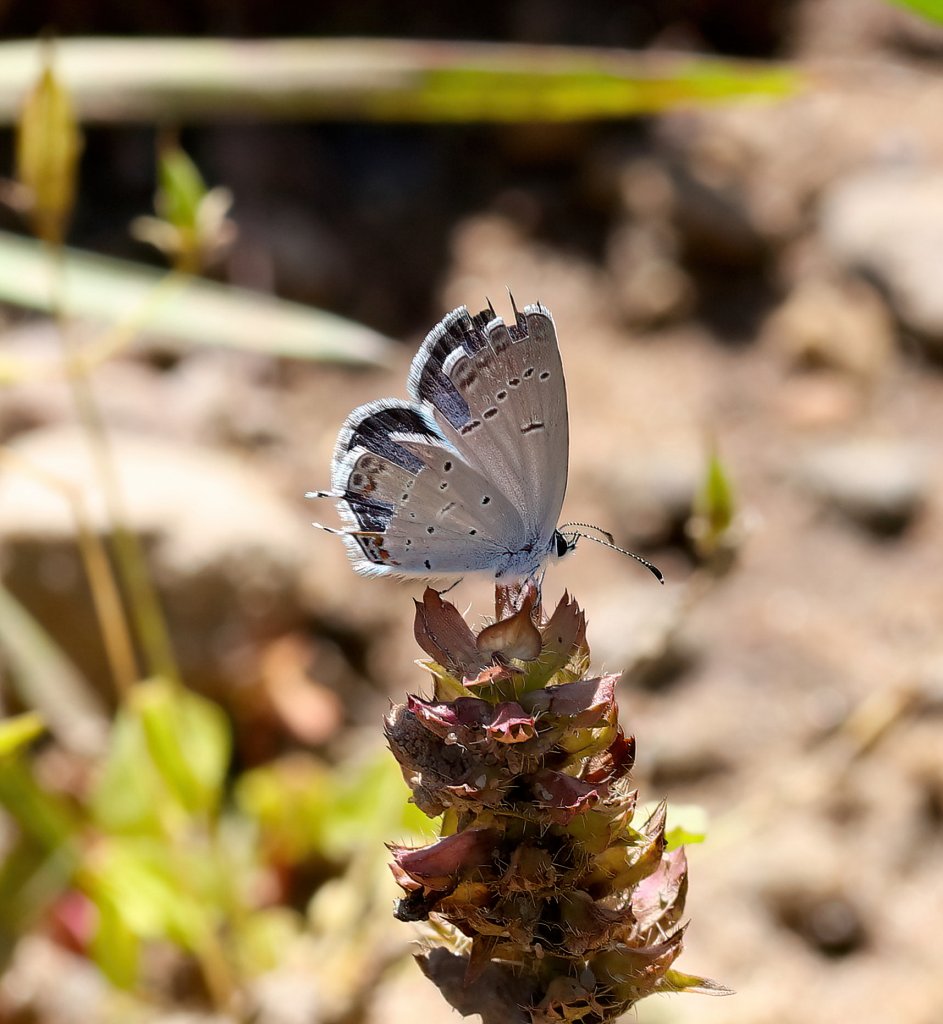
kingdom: Animalia
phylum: Arthropoda
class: Insecta
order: Lepidoptera
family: Lycaenidae
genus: Elkalyce
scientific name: Elkalyce comyntas
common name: Eastern Tailed-Blue
